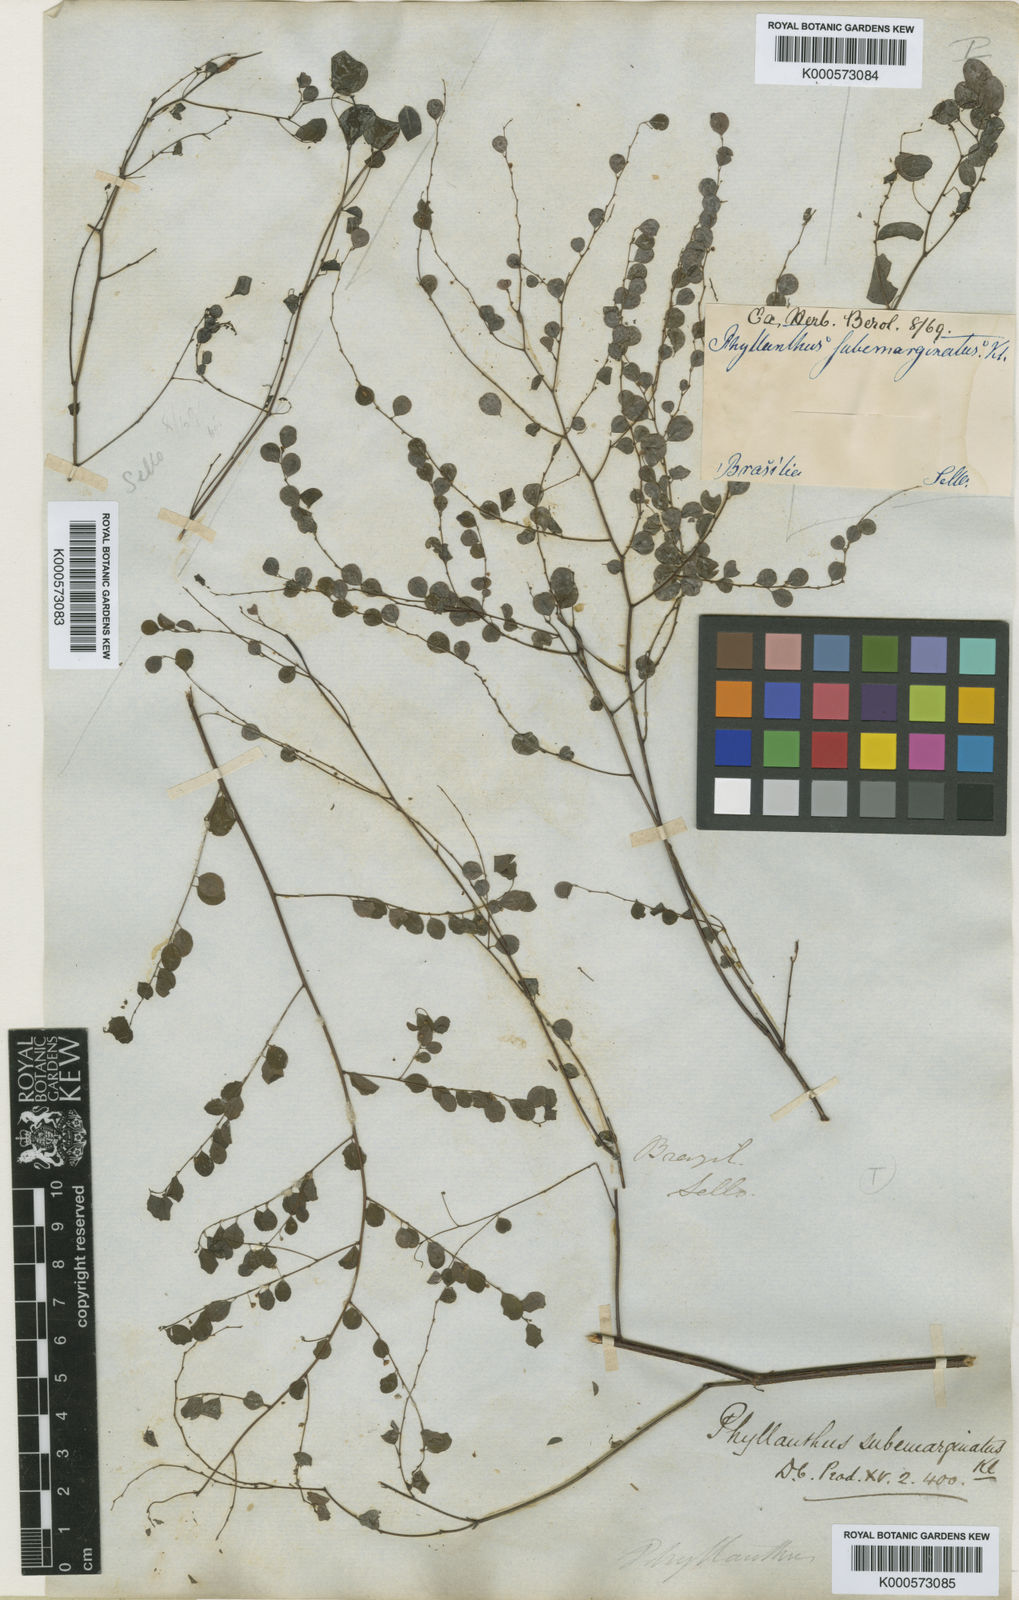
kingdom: Plantae
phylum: Tracheophyta
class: Magnoliopsida
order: Malpighiales
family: Phyllanthaceae
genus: Phyllanthus
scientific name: Phyllanthus
